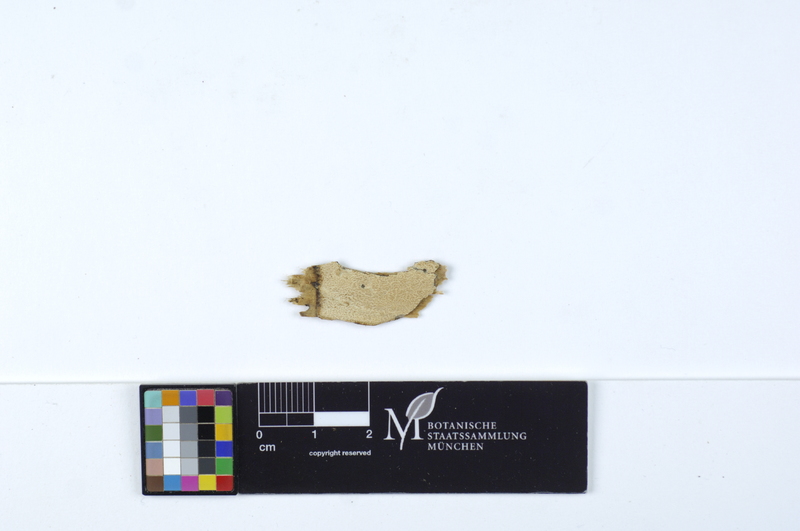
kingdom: Fungi
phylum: Basidiomycota
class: Agaricomycetes
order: Polyporales
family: Dacryobolaceae
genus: Dacryobolus
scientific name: Dacryobolus sudans
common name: Weeping toothcrust
